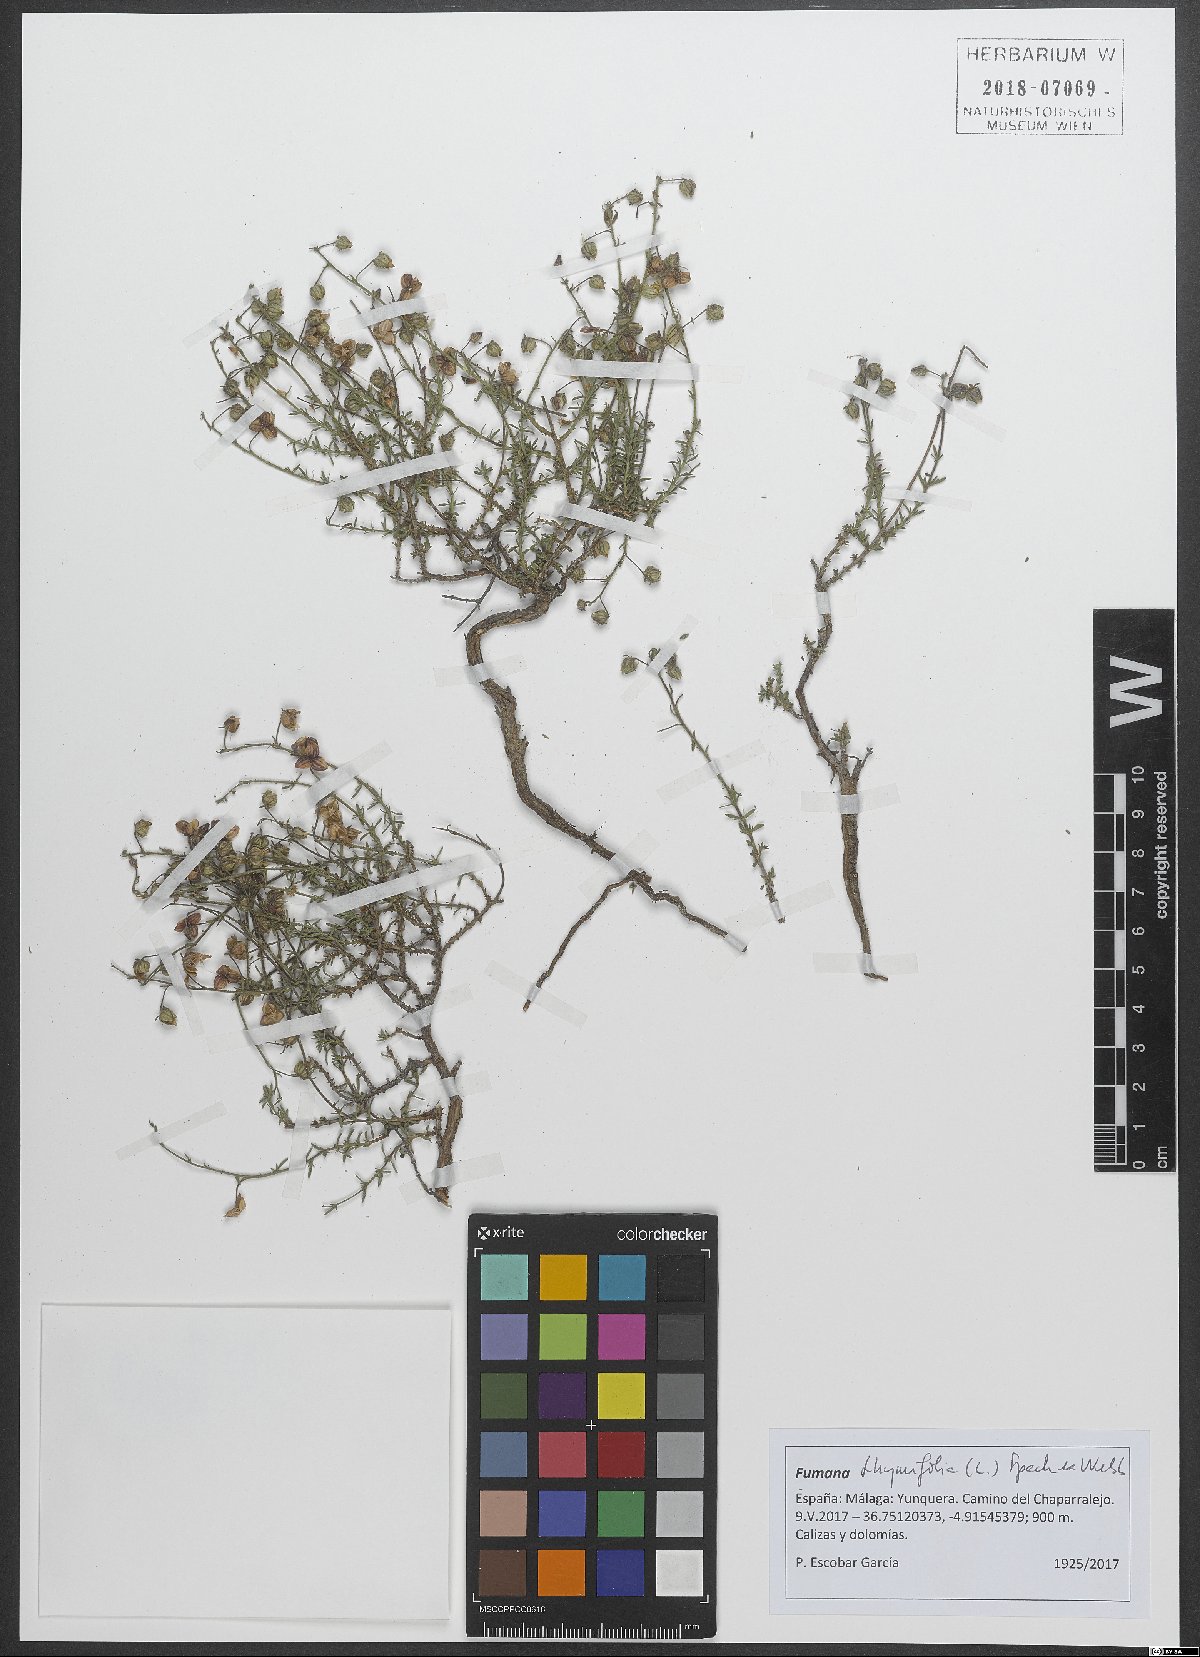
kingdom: Plantae
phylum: Tracheophyta
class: Magnoliopsida
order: Malvales
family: Cistaceae
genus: Fumana
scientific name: Fumana thymifolia
